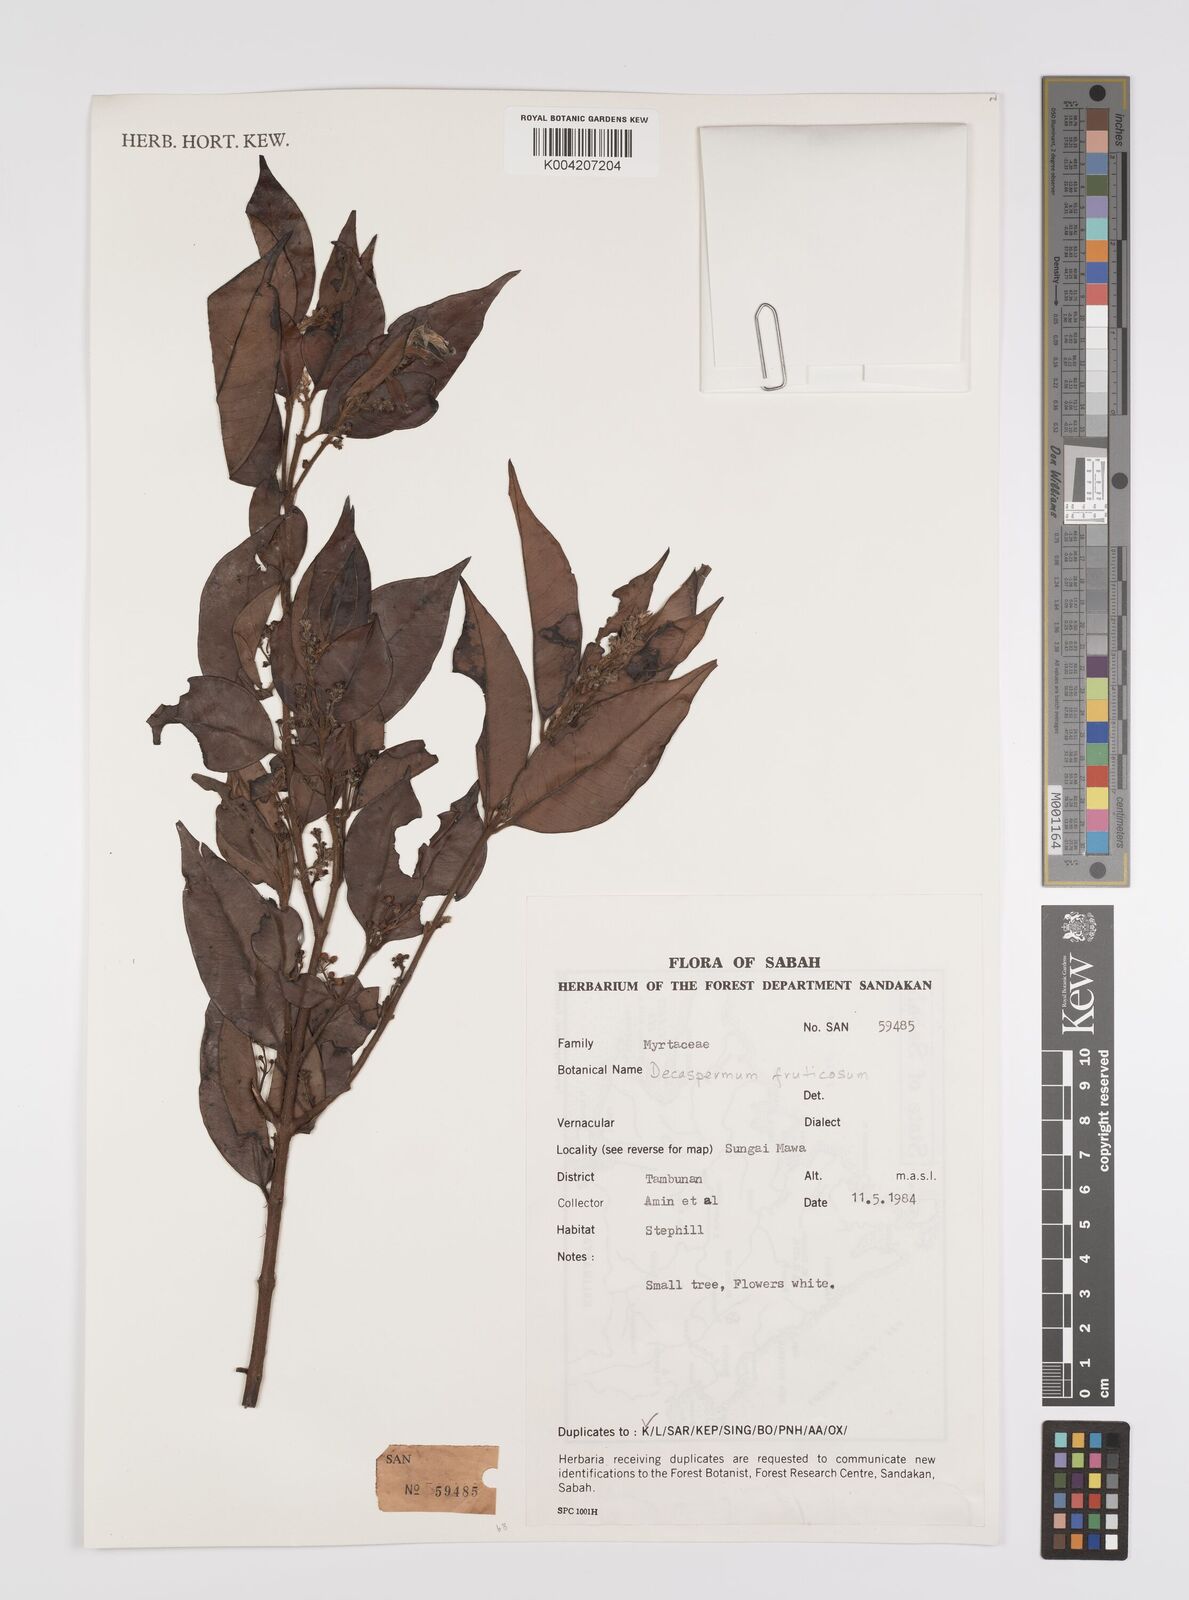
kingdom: Plantae
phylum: Tracheophyta
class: Magnoliopsida
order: Myrtales
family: Myrtaceae
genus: Decaspermum
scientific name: Decaspermum parviflorum
